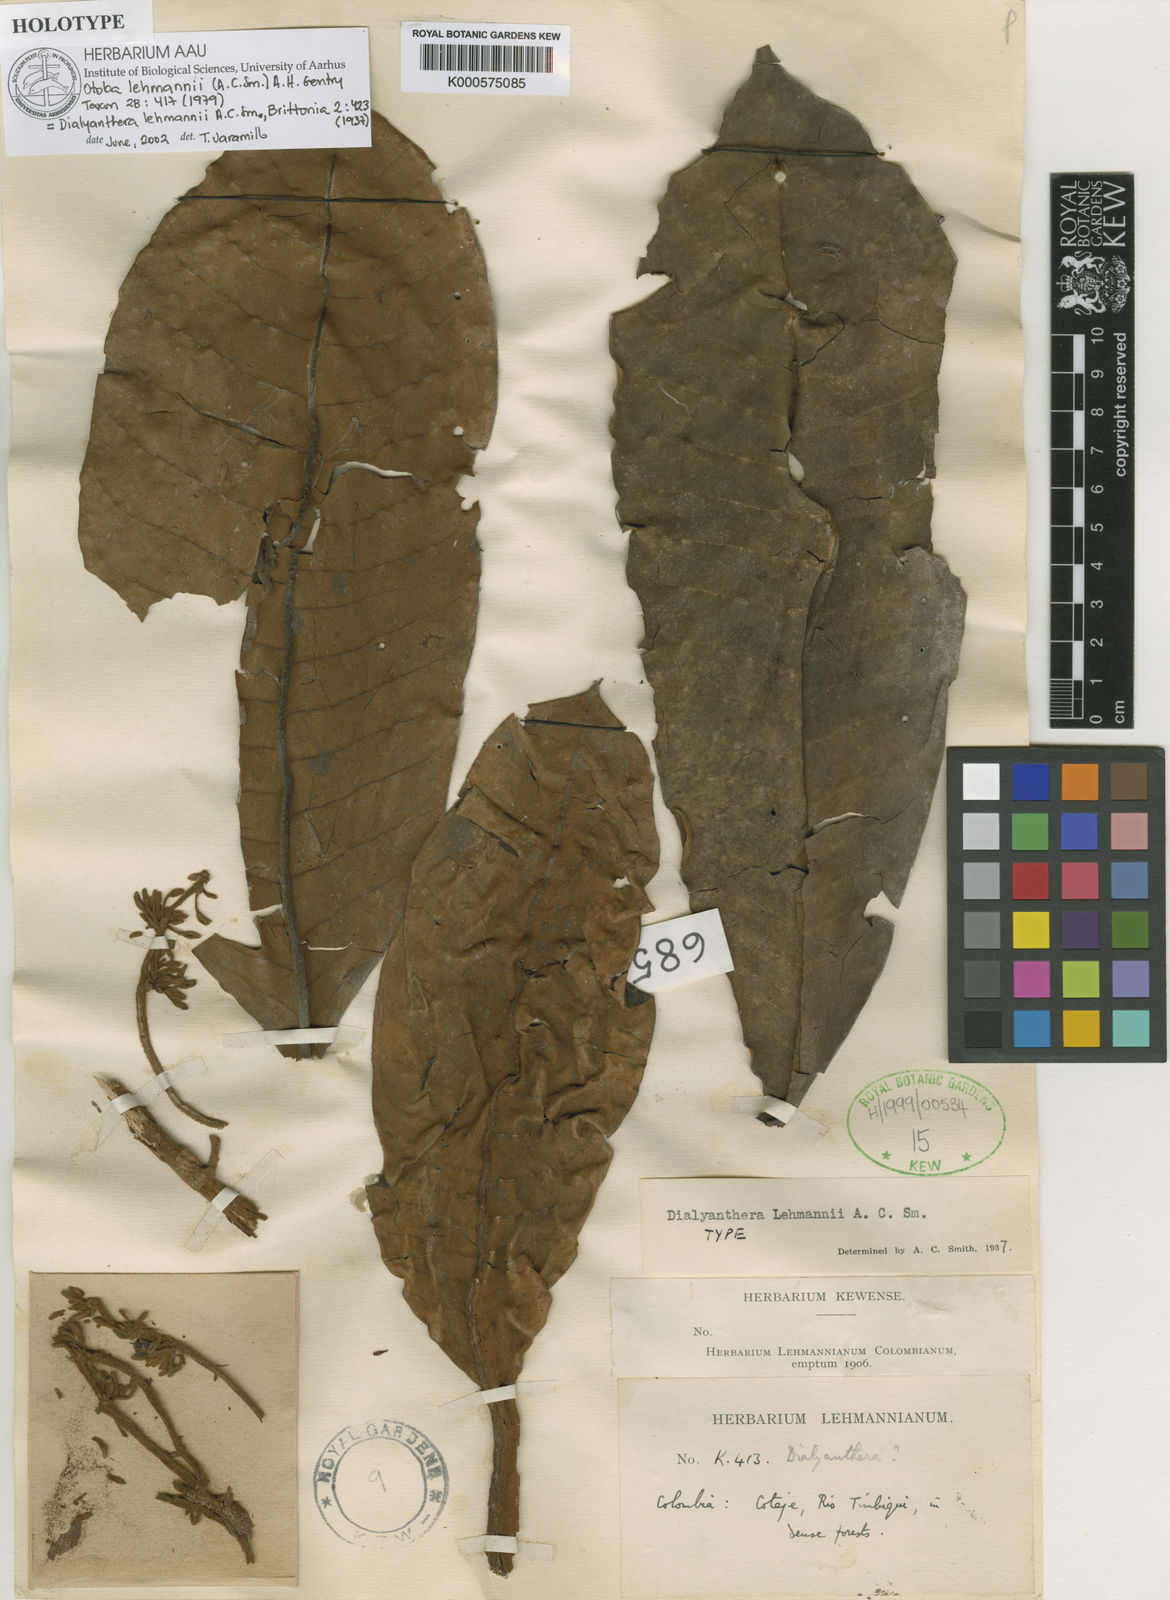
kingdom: Plantae
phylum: Tracheophyta
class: Magnoliopsida
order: Magnoliales
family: Myristicaceae
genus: Otoba
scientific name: Otoba lehmannii
